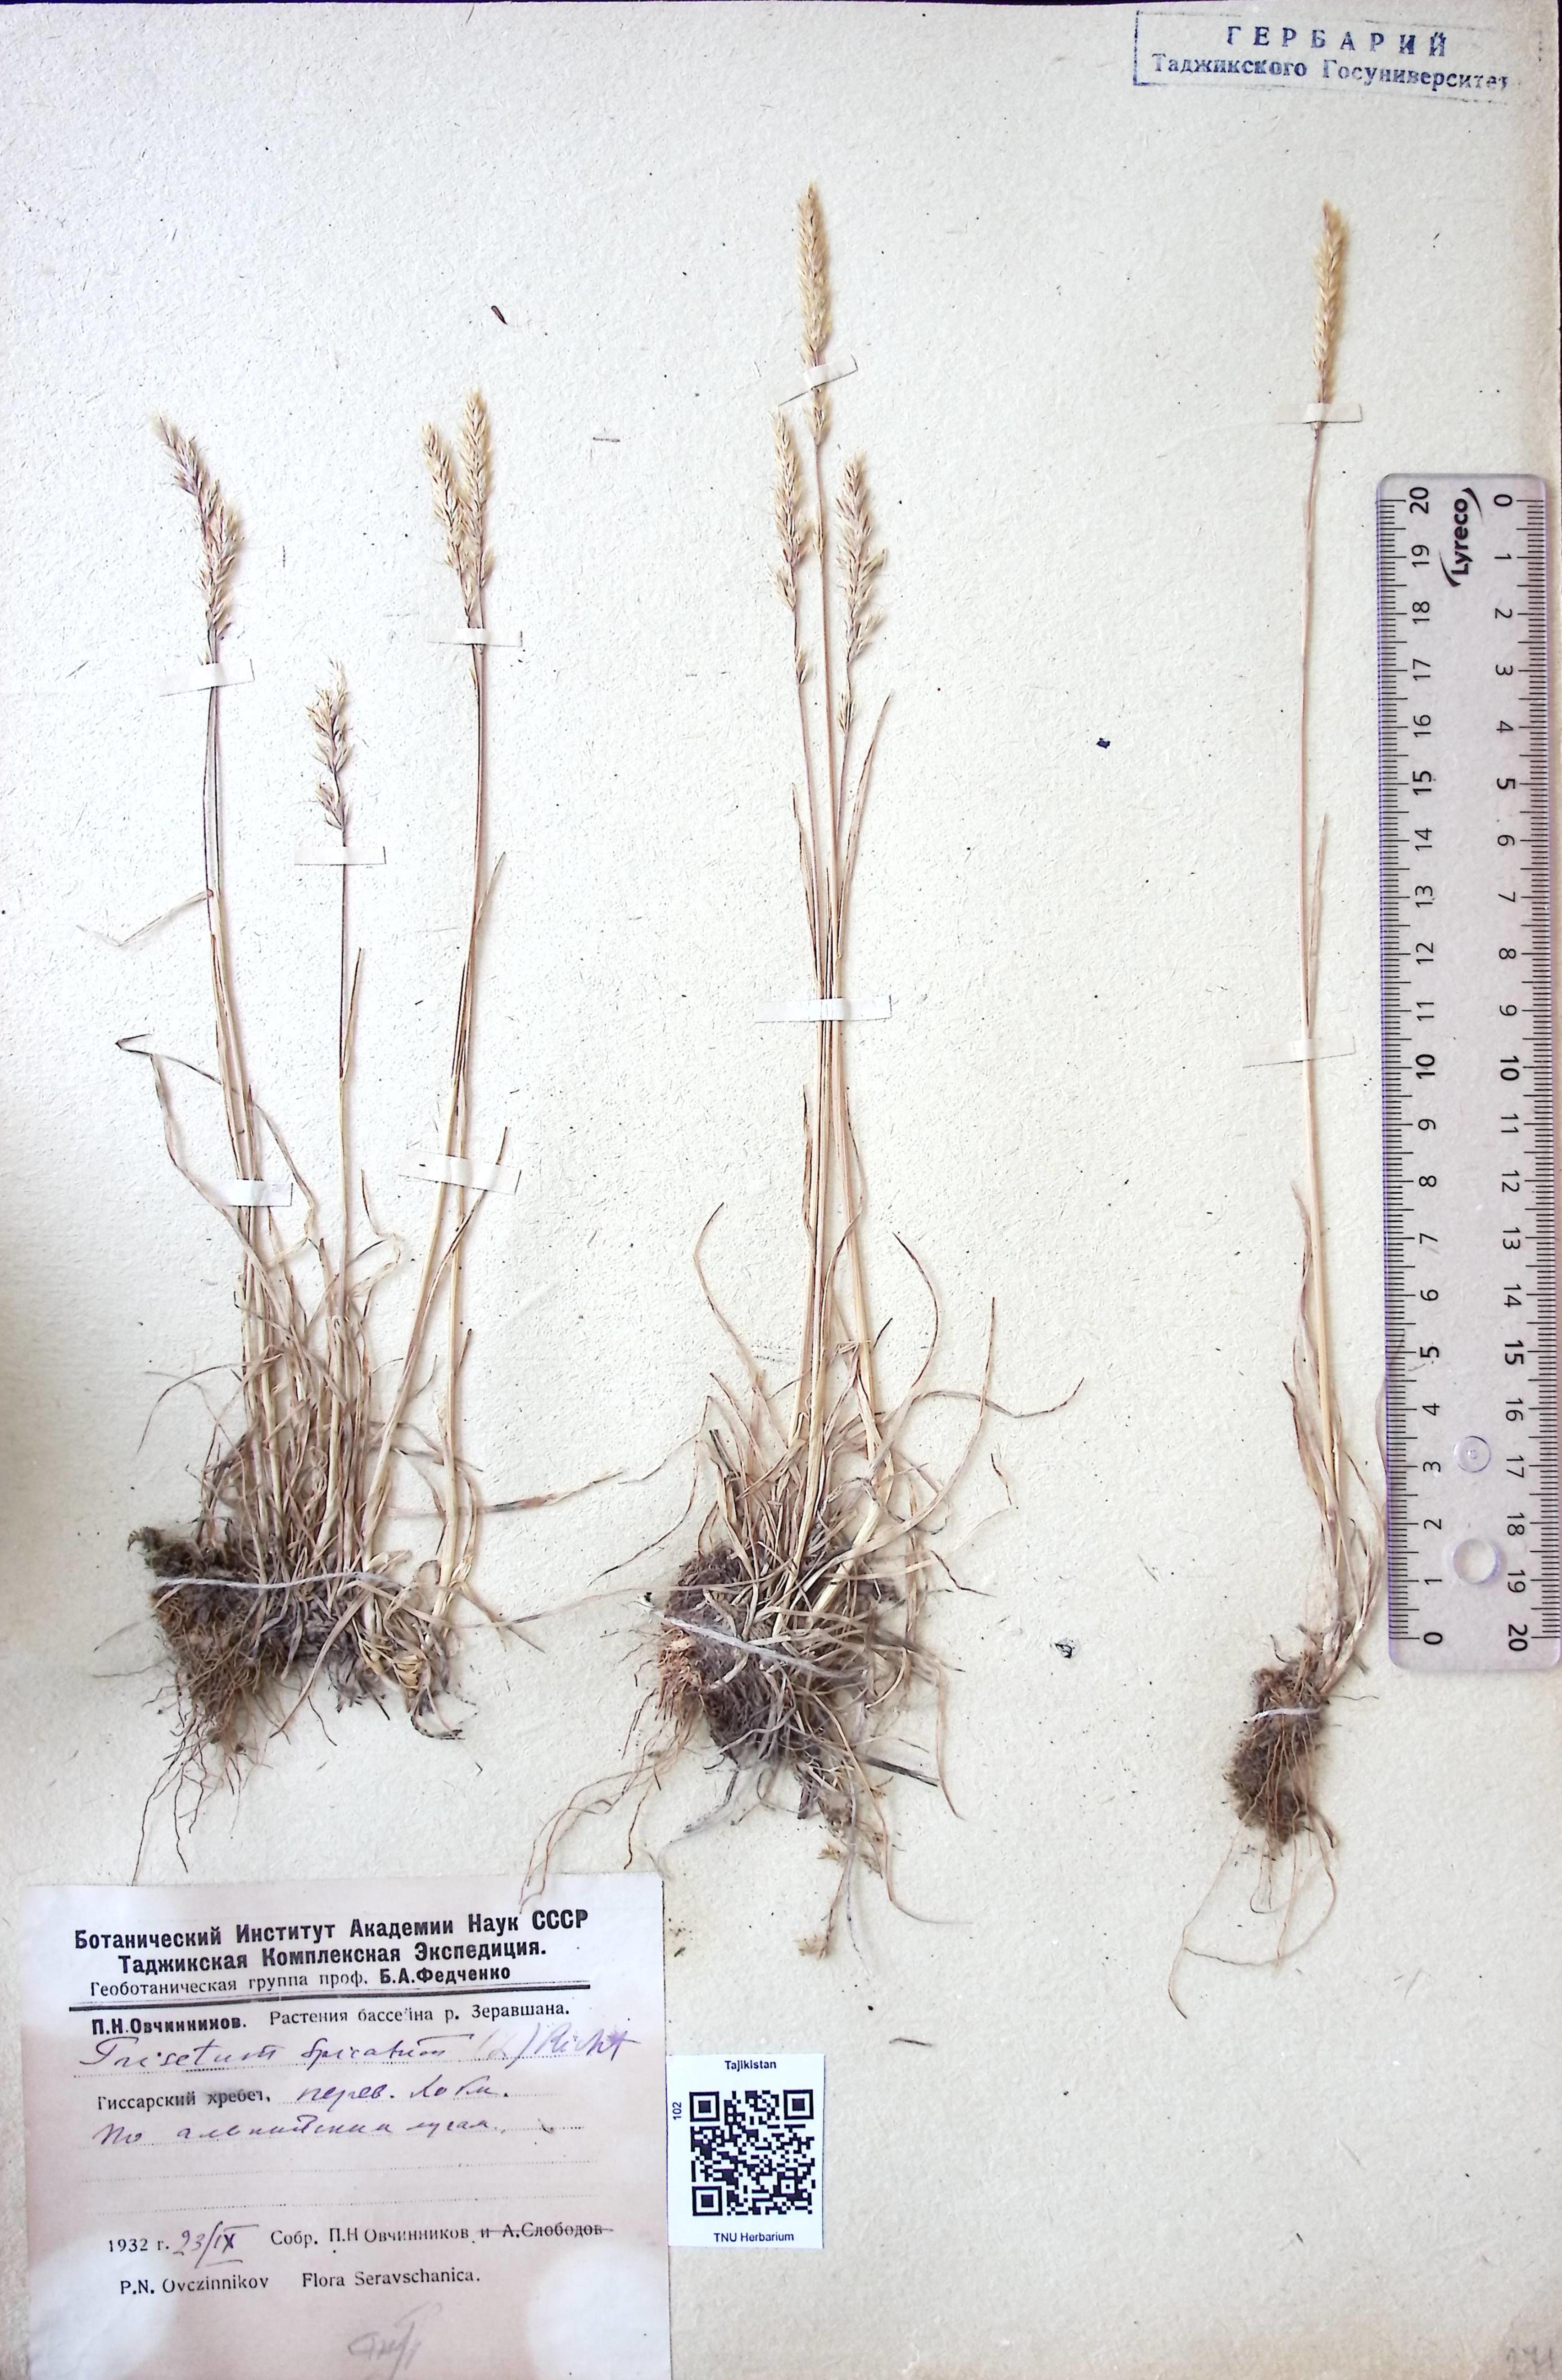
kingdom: Plantae
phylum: Tracheophyta
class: Liliopsida
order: Poales
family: Poaceae
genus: Koeleria
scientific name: Koeleria spicata
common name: Mountain trisetum
